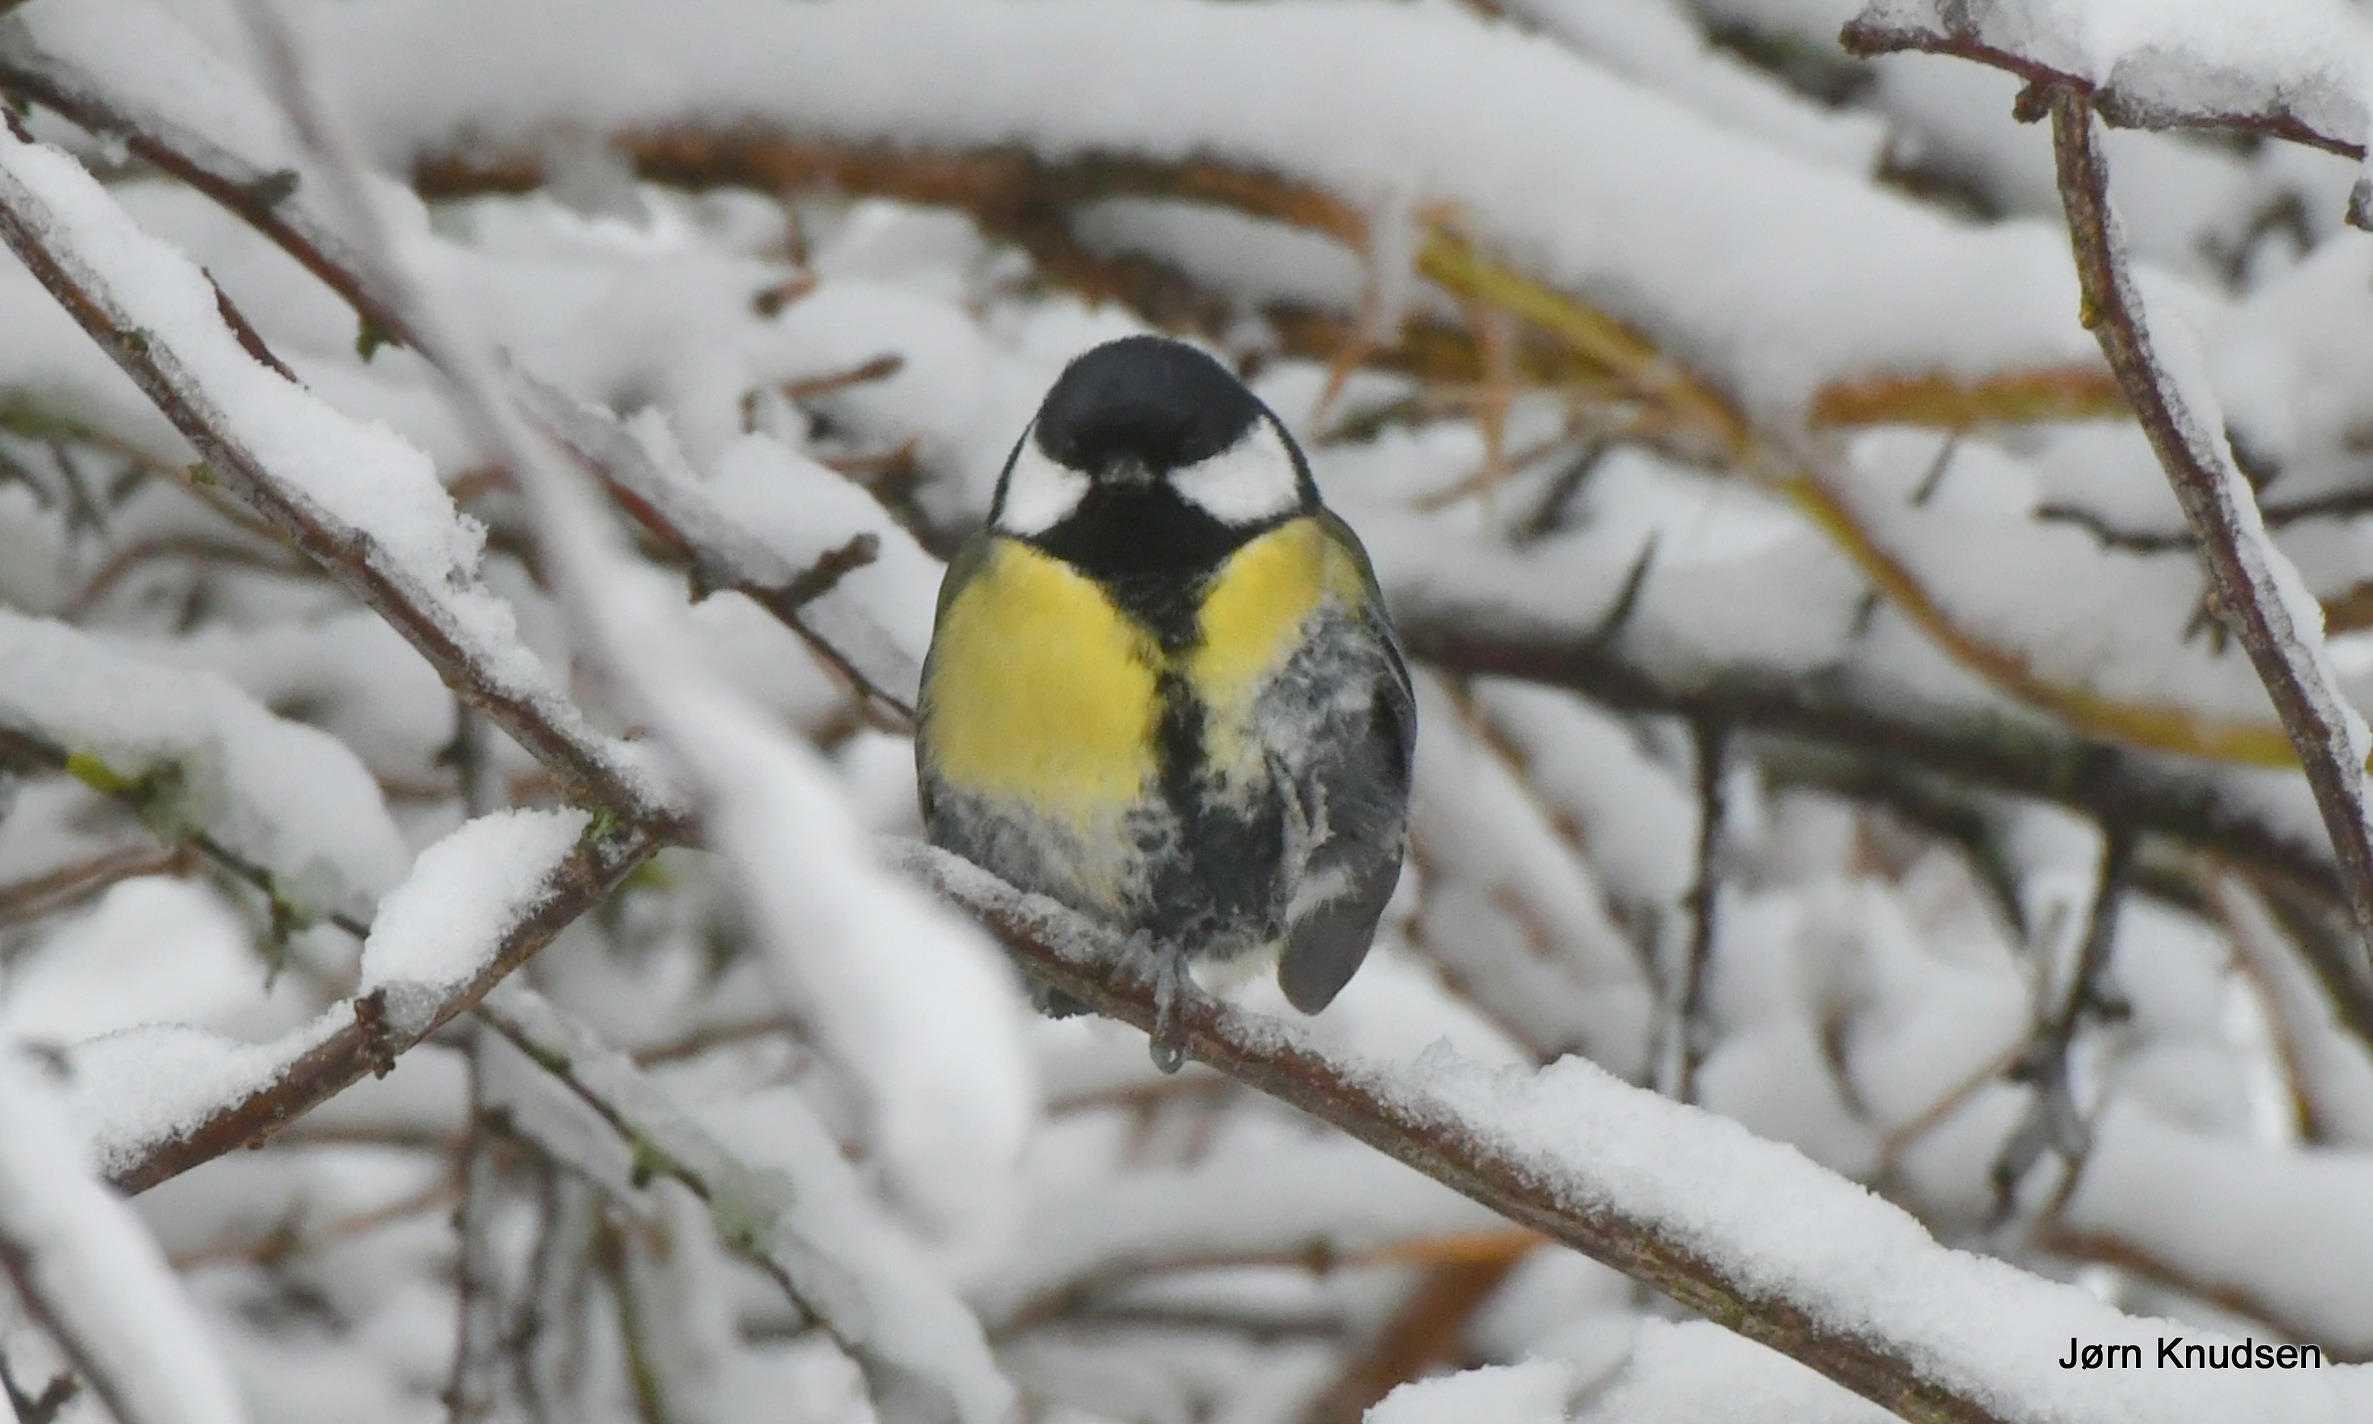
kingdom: Animalia
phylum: Chordata
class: Aves
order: Passeriformes
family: Paridae
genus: Parus
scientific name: Parus major
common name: Musvit
